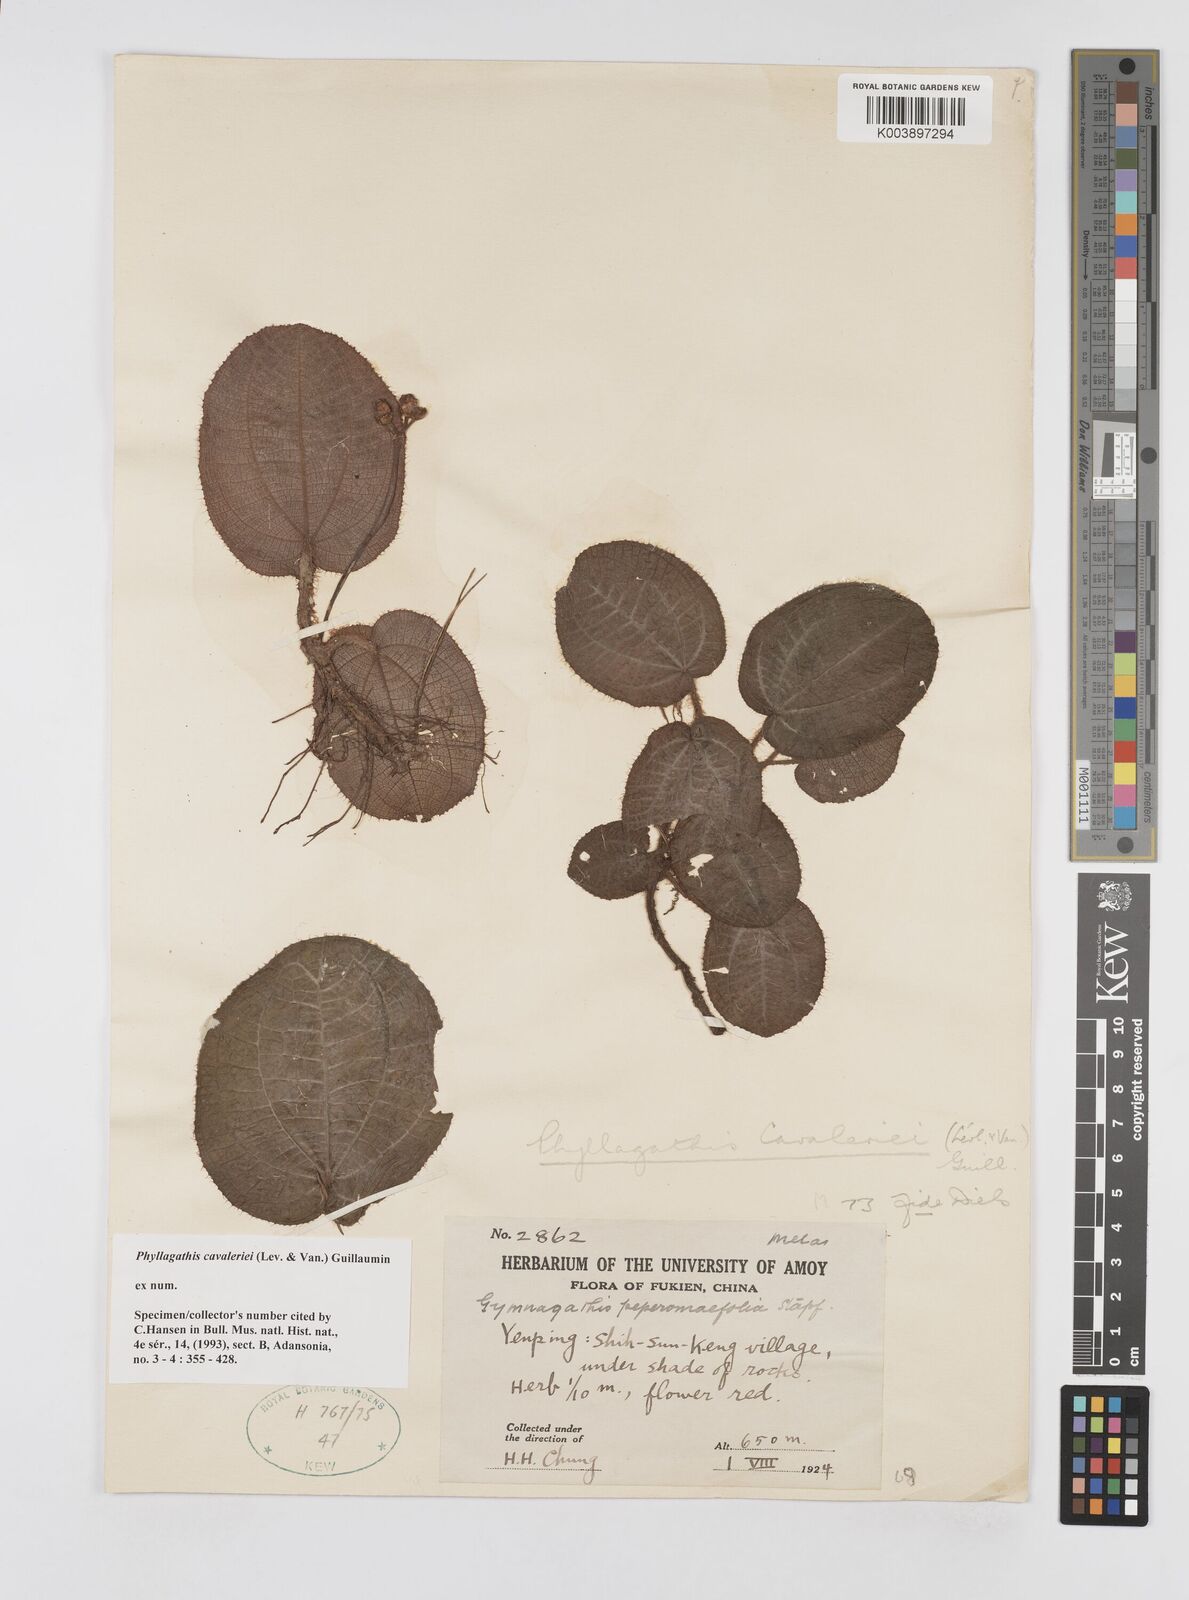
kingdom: Plantae
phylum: Tracheophyta
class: Magnoliopsida
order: Myrtales
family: Melastomataceae
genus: Phyllagathis
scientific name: Phyllagathis cavaleriei
